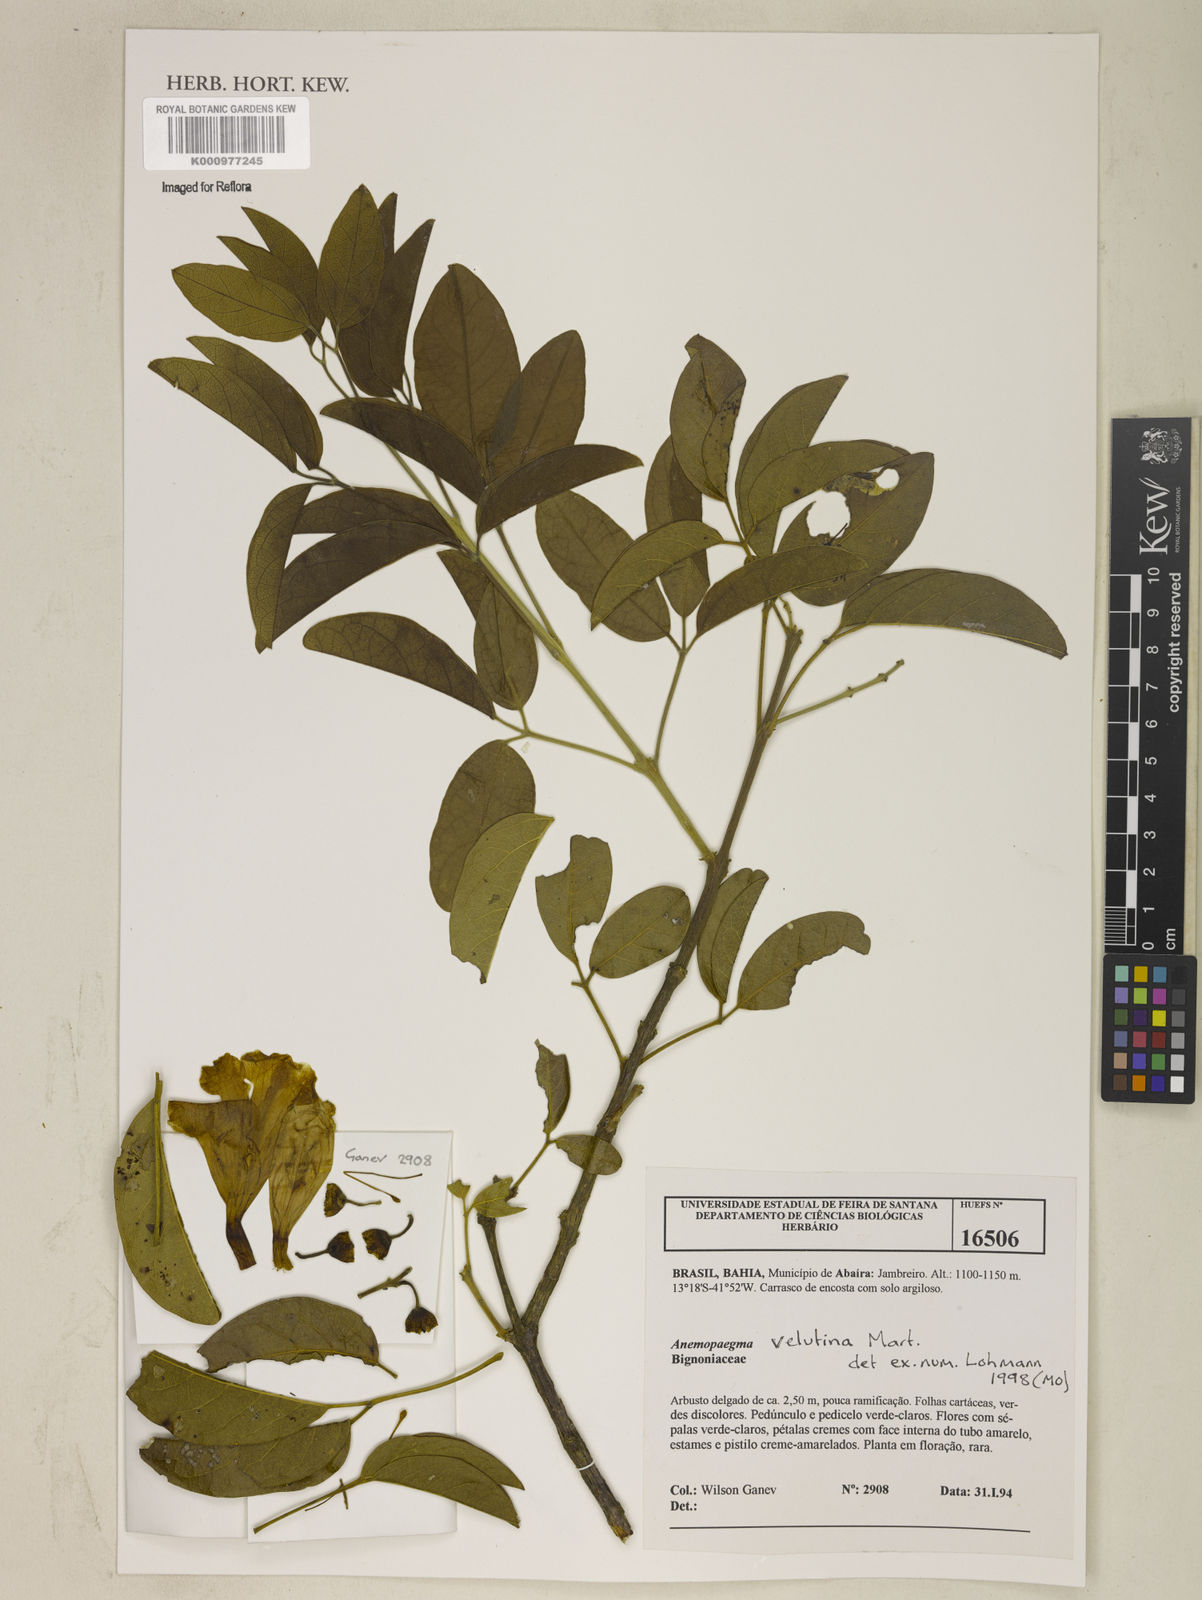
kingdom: Plantae
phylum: Tracheophyta
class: Magnoliopsida
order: Lamiales
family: Bignoniaceae
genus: Anemopaegma
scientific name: Anemopaegma velutinum
